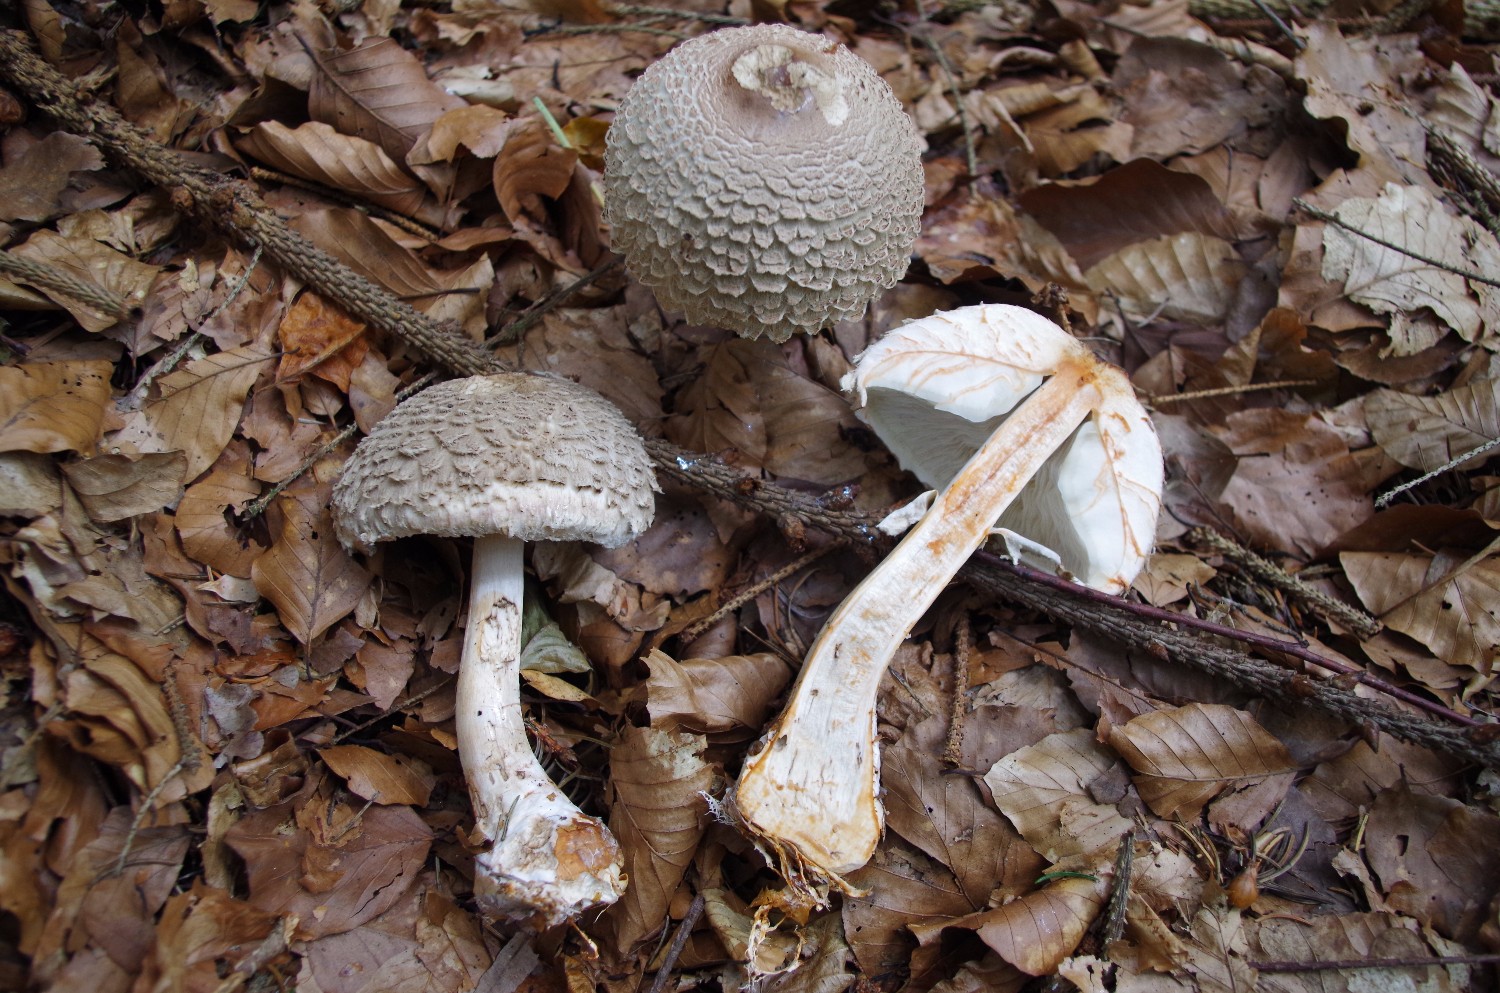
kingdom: Fungi
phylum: Basidiomycota
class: Agaricomycetes
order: Agaricales
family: Agaricaceae
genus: Chlorophyllum
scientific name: Chlorophyllum olivieri
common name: almindelig rabarberhat
